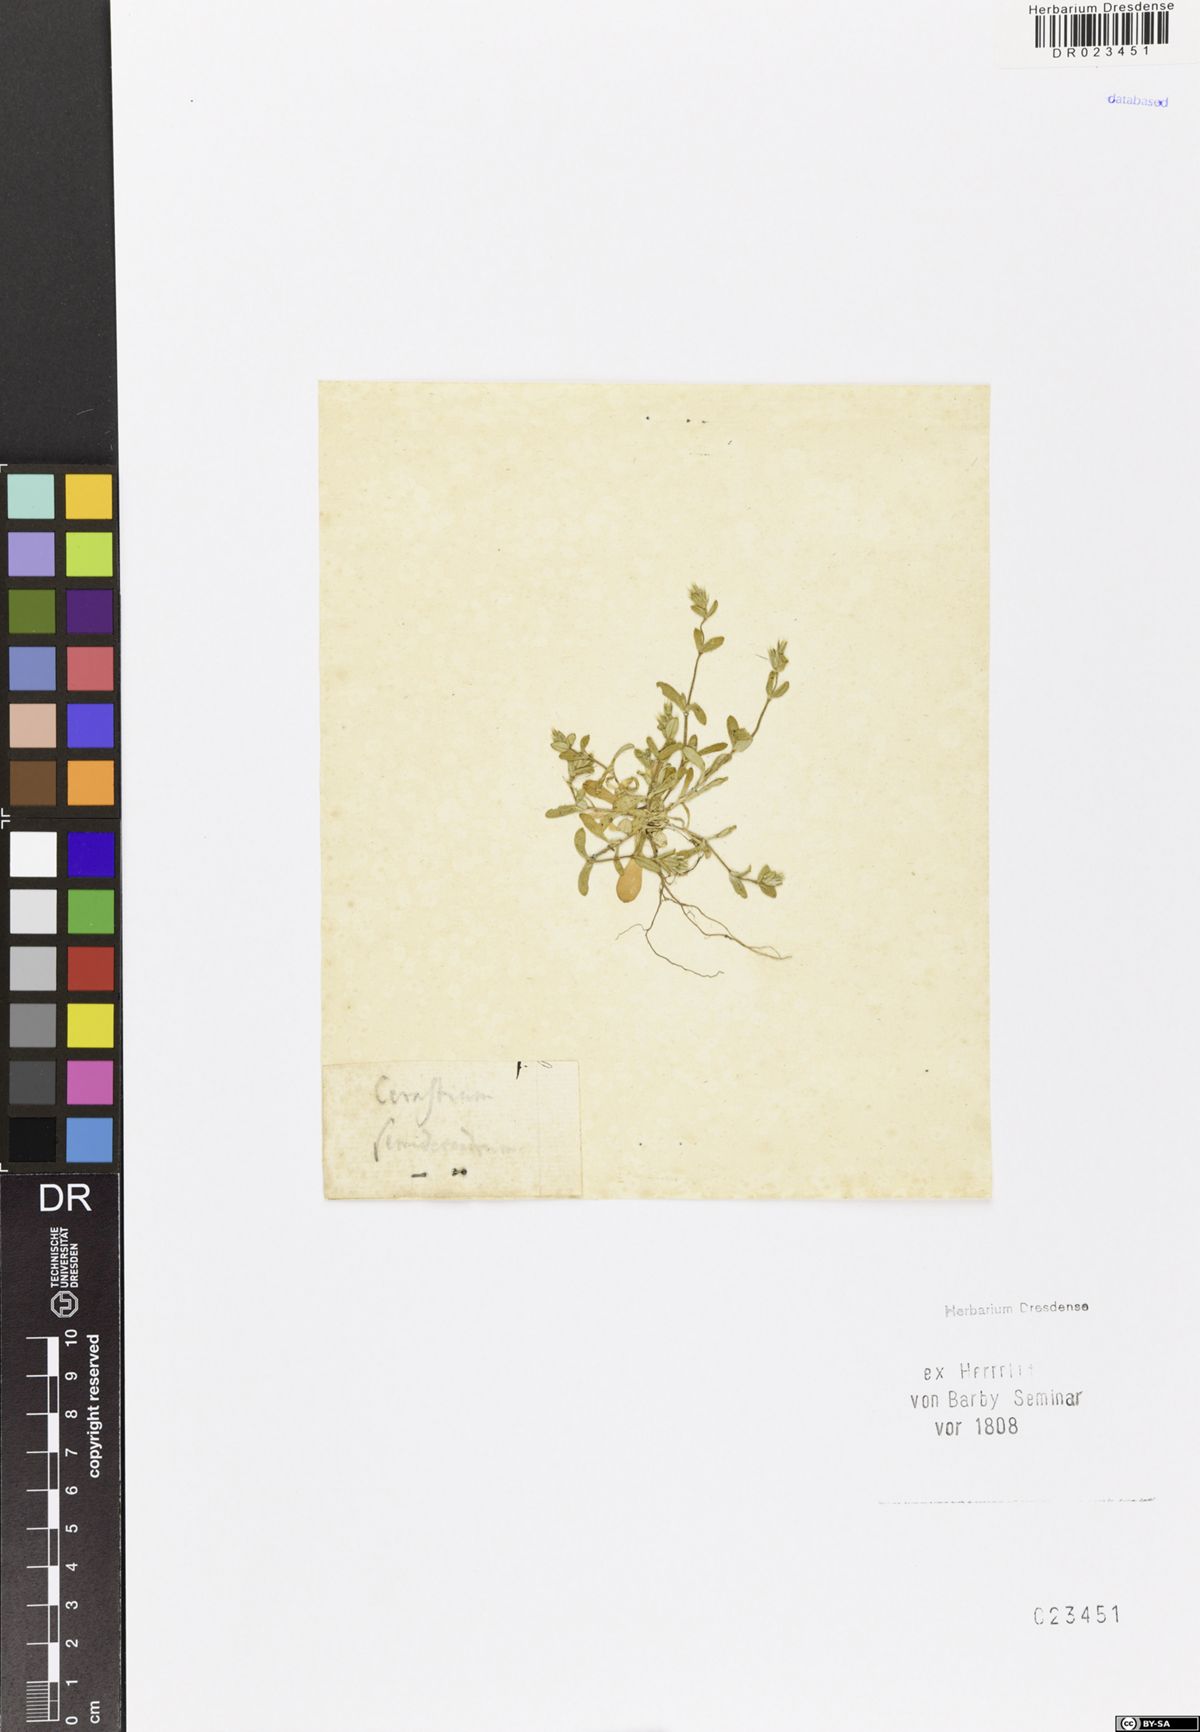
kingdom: Plantae
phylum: Tracheophyta
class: Magnoliopsida
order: Caryophyllales
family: Caryophyllaceae
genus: Cerastium
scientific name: Cerastium semidecandrum
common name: Little mouse-ear
